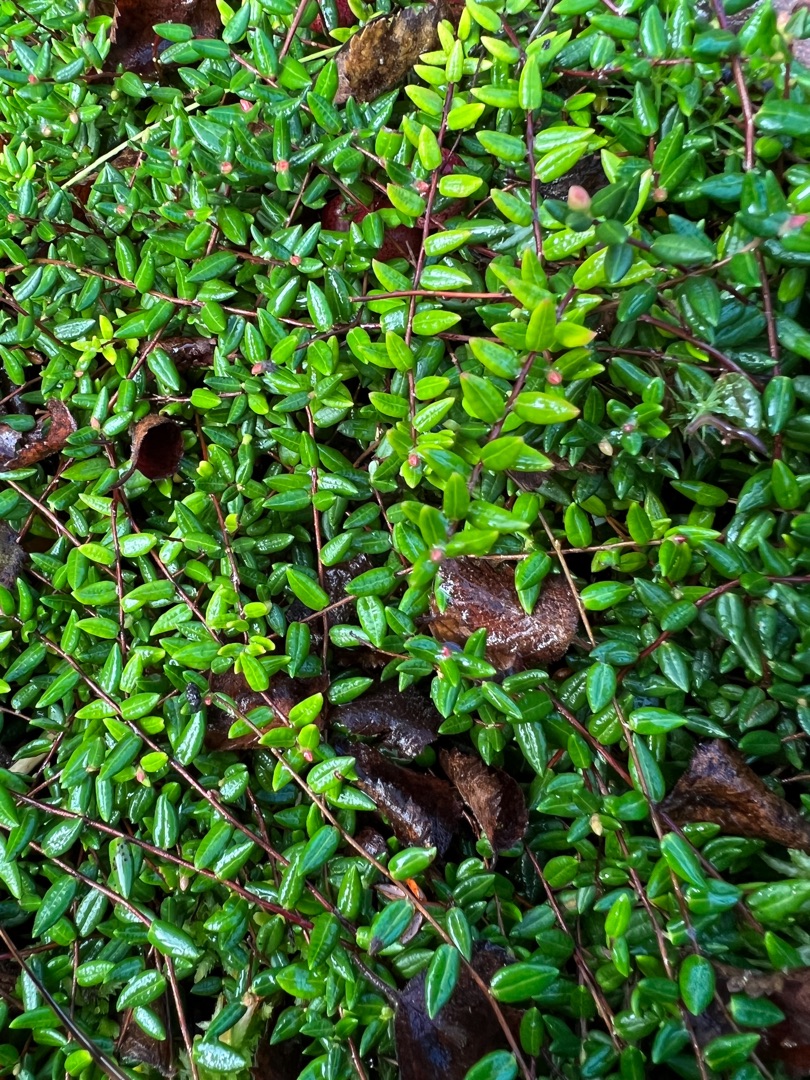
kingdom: Plantae
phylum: Tracheophyta
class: Magnoliopsida
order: Ericales
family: Ericaceae
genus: Vaccinium
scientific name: Vaccinium oxycoccos
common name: Tranebær
